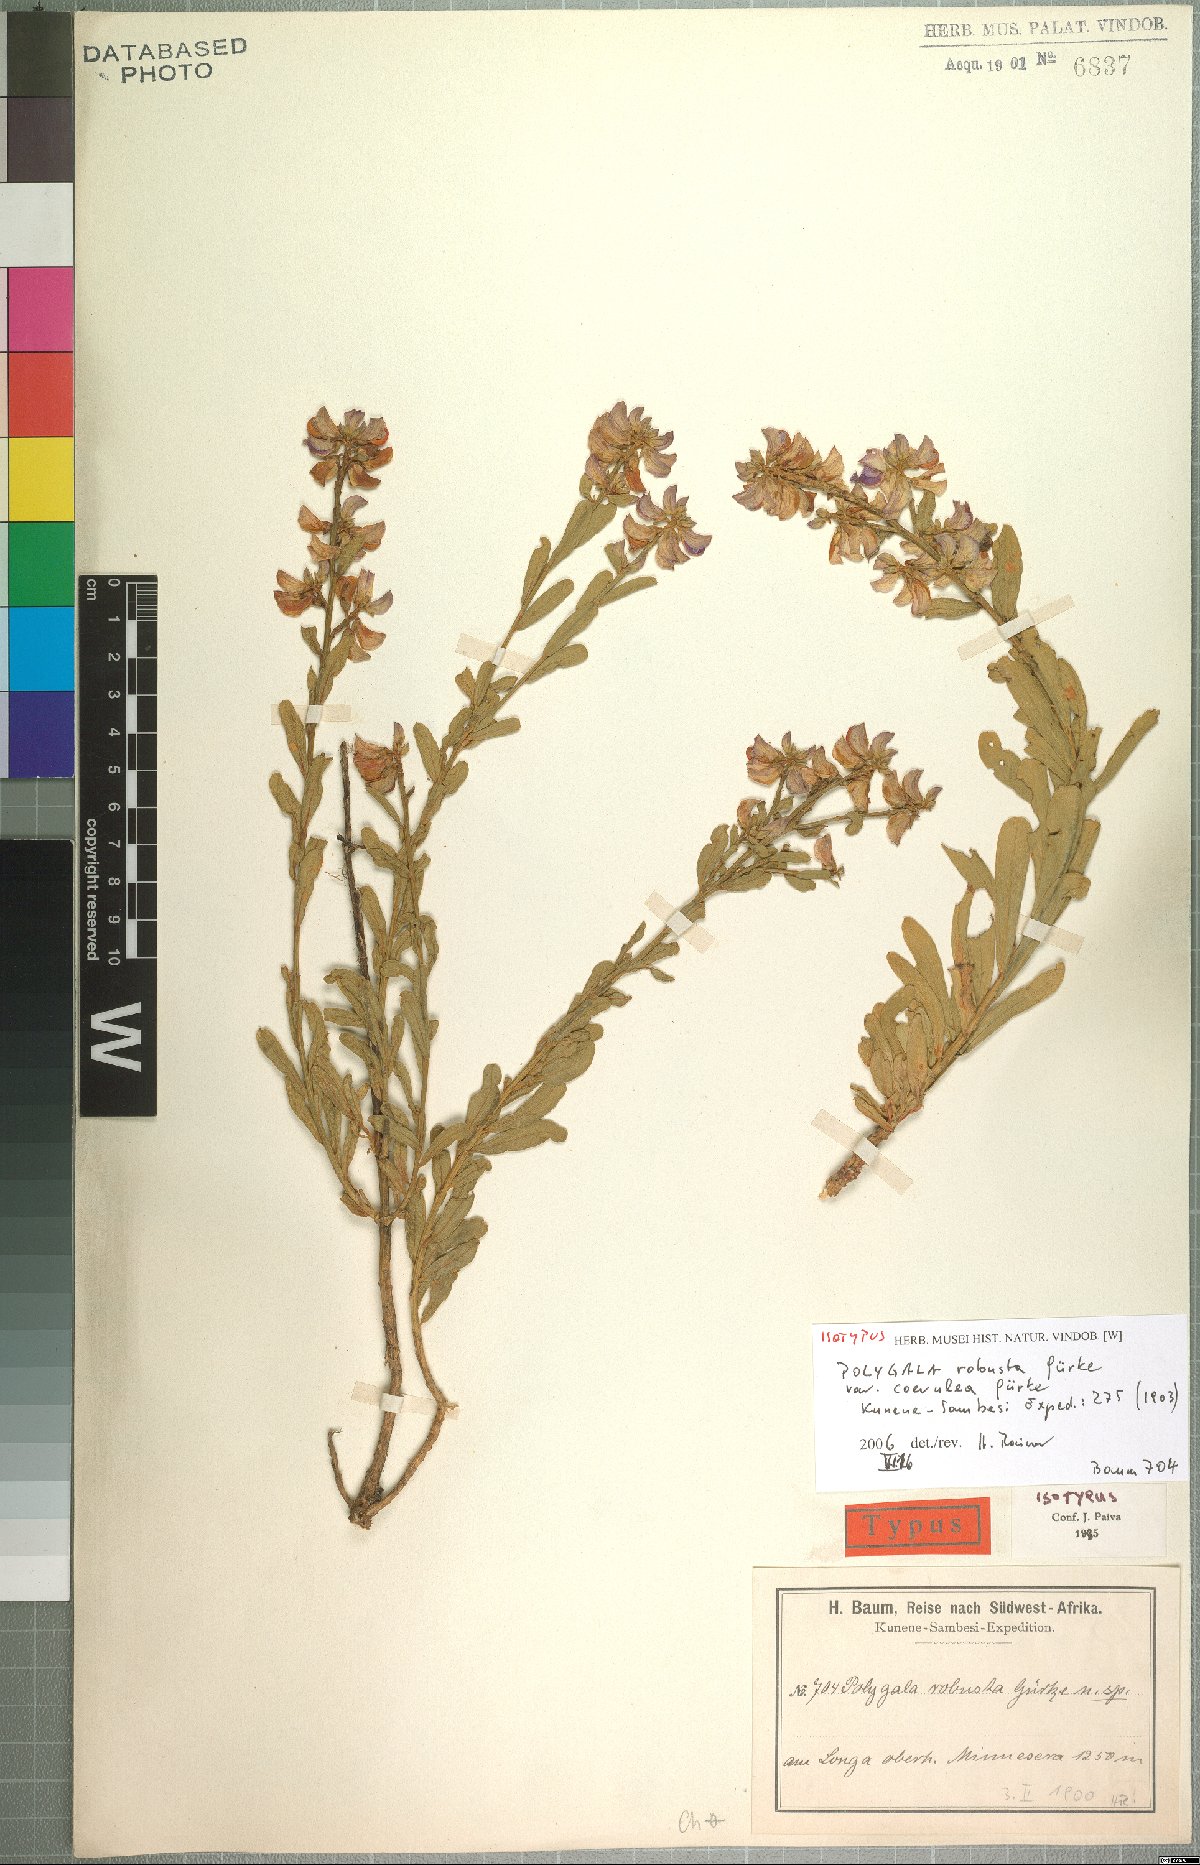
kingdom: Plantae
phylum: Tracheophyta
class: Magnoliopsida
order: Fabales
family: Polygalaceae
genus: Polygala
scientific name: Polygala robusta
